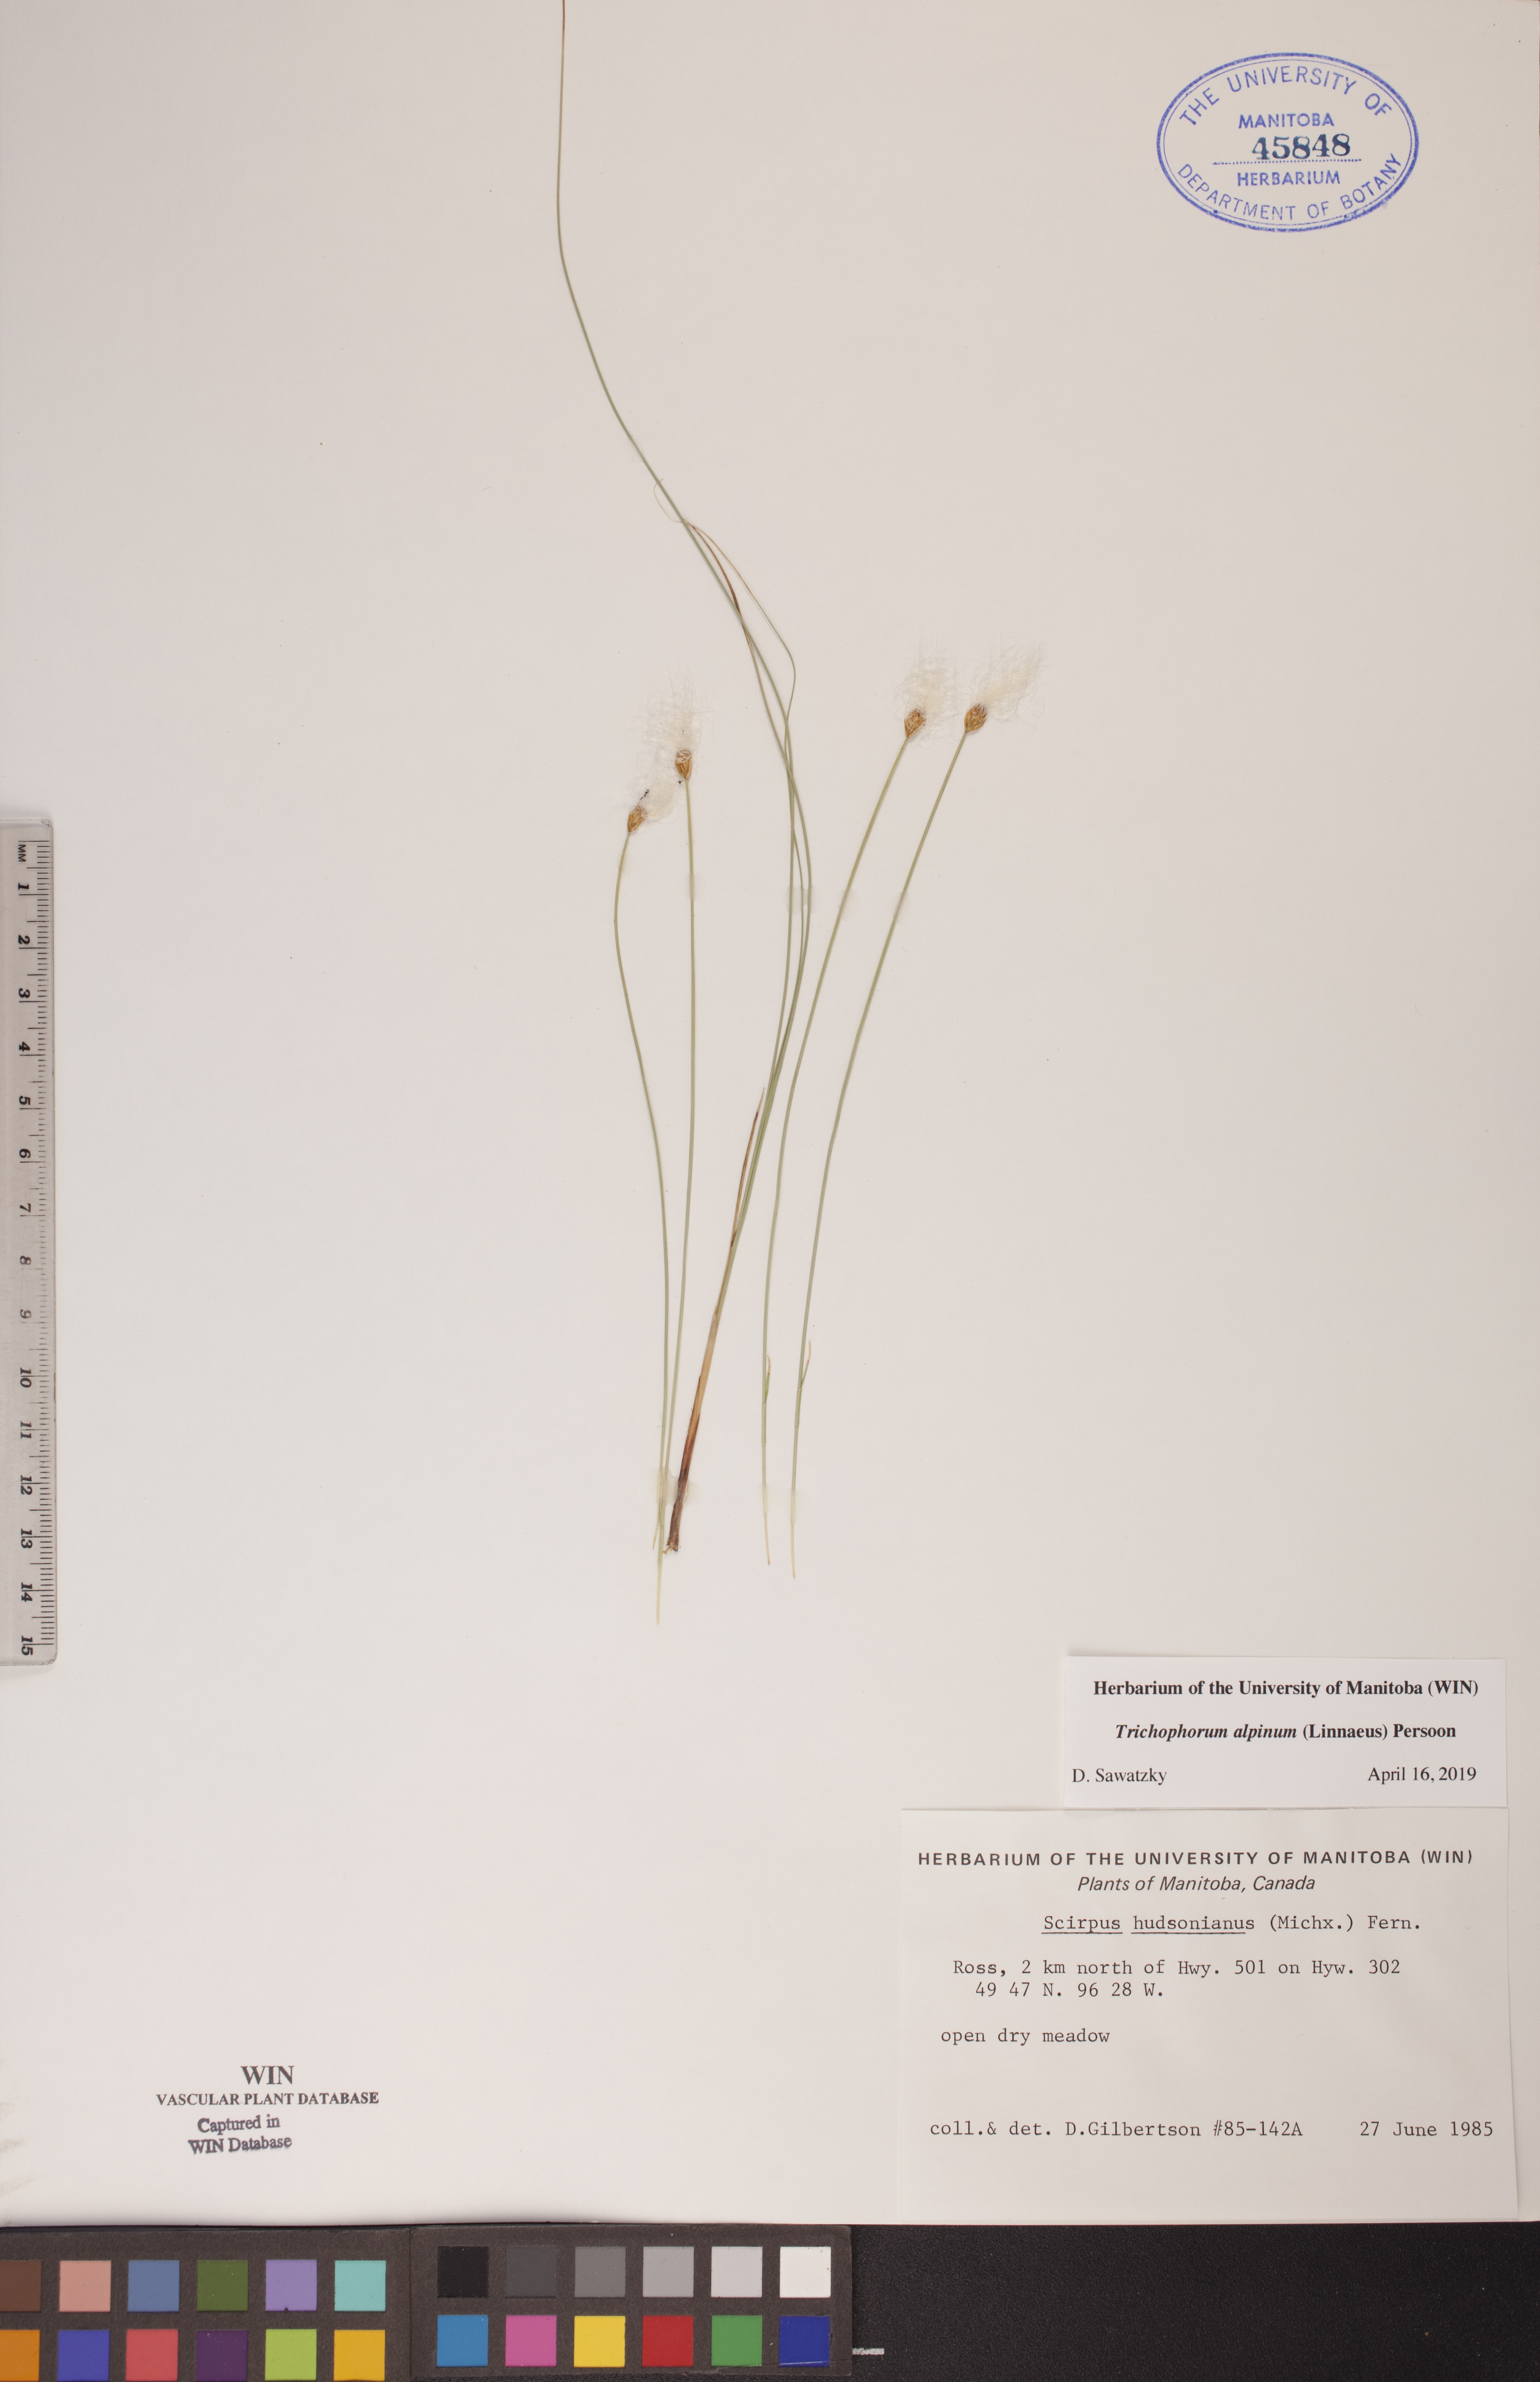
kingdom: Plantae
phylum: Tracheophyta
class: Liliopsida
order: Poales
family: Cyperaceae
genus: Trichophorum
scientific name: Trichophorum alpinum
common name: Alpine bulrush
